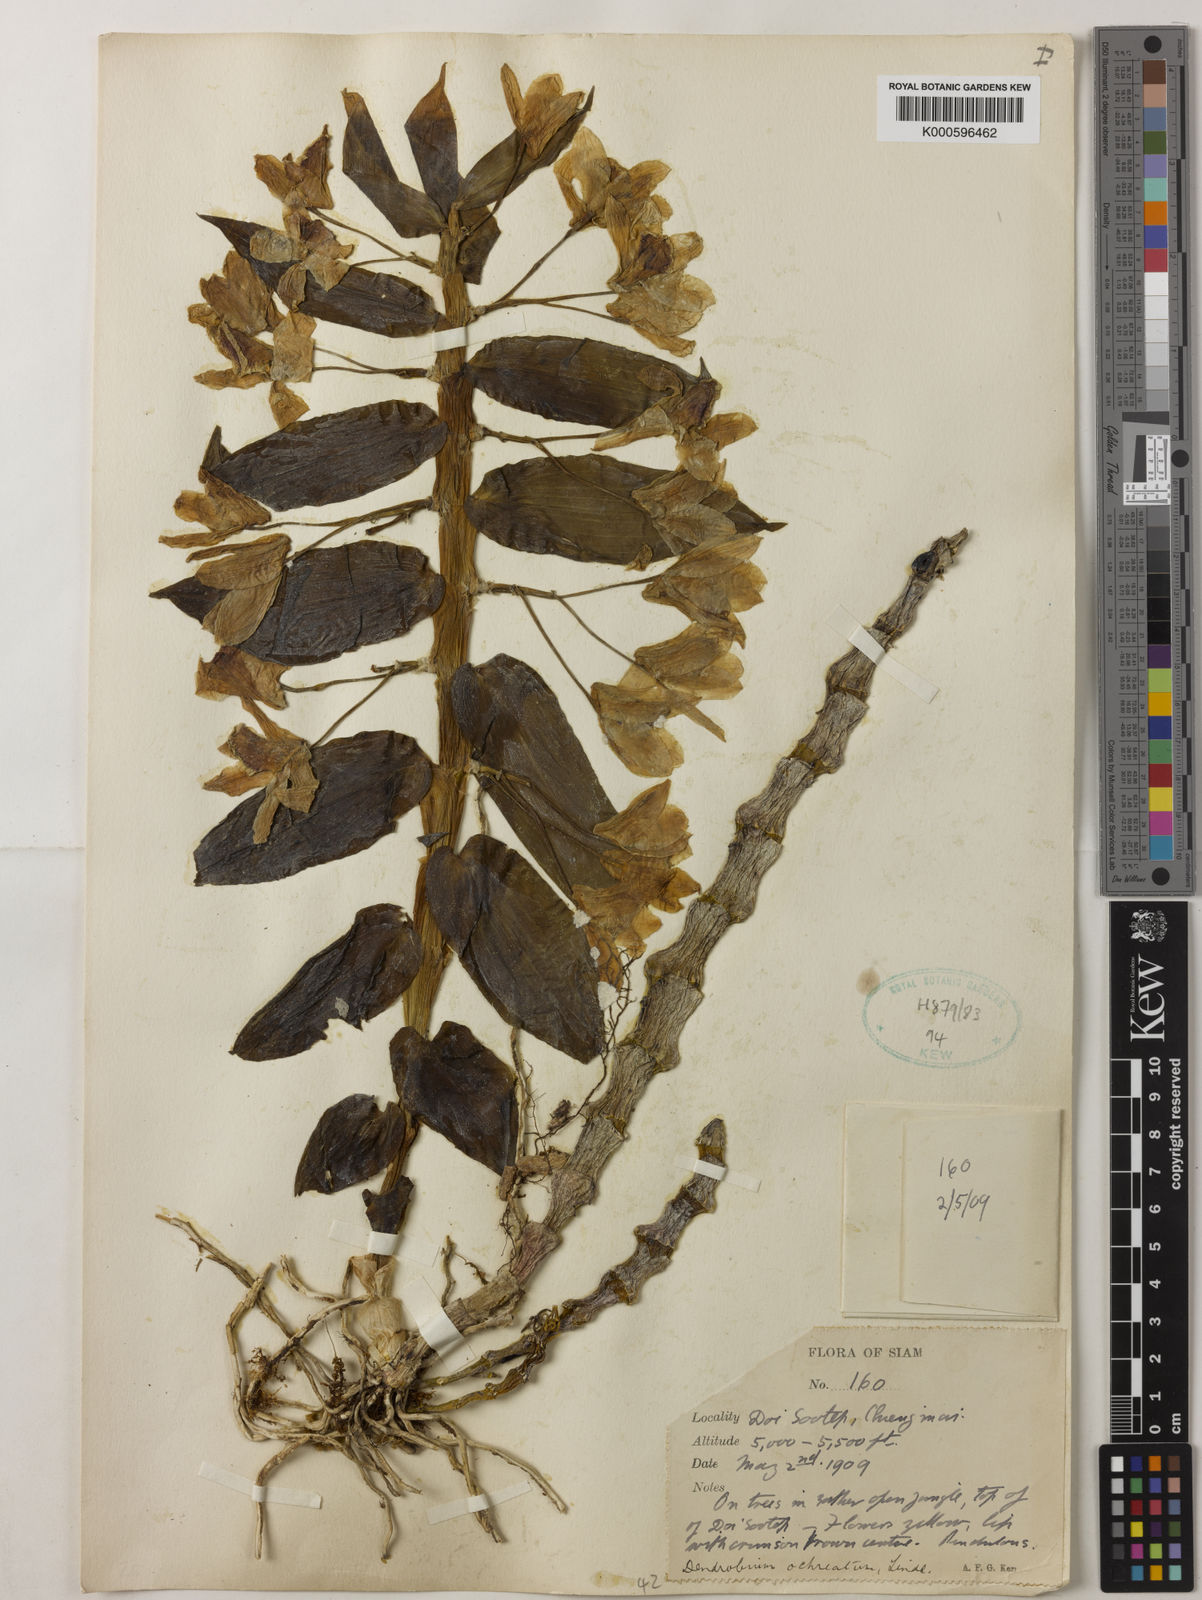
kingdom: Plantae
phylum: Tracheophyta
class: Liliopsida
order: Asparagales
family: Orchidaceae
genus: Dendrobium
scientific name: Dendrobium ochreatum
